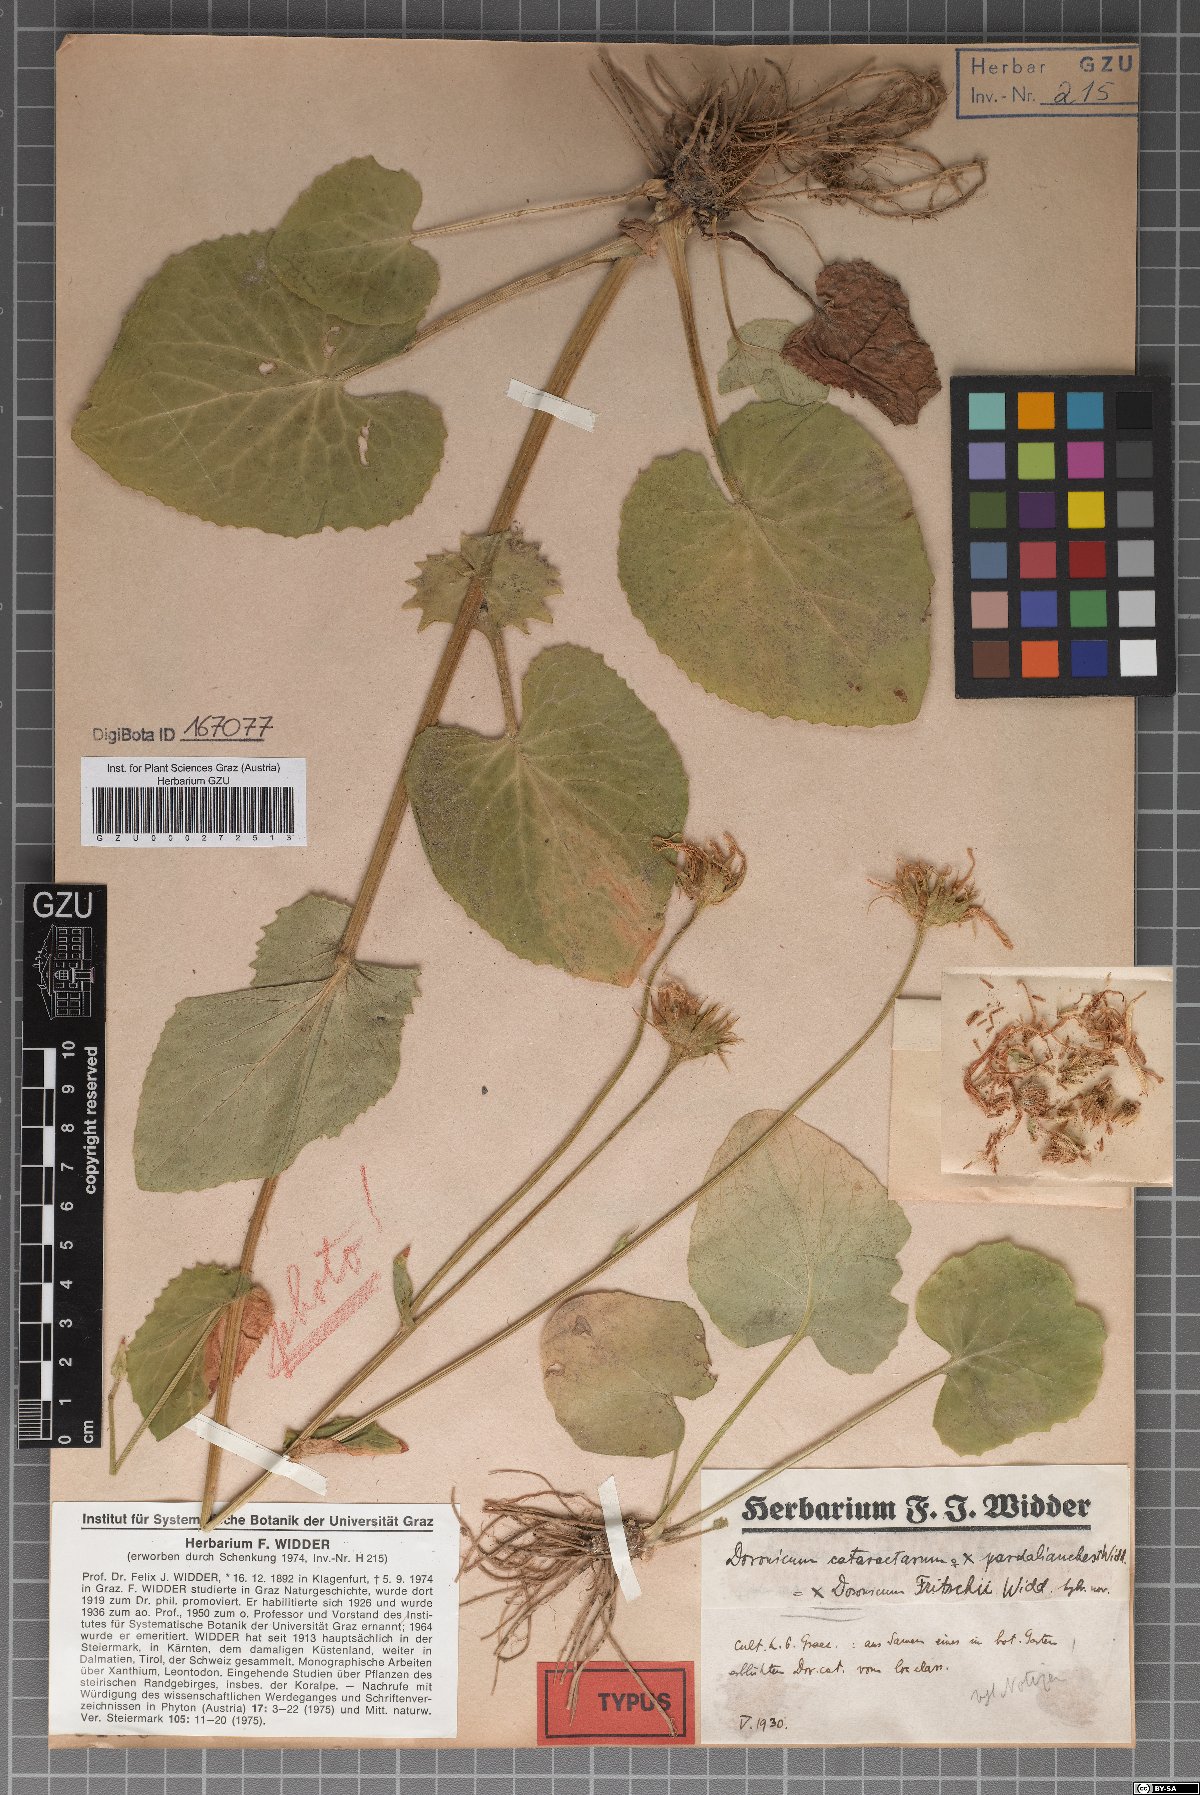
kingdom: Plantae
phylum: Tracheophyta
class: Magnoliopsida
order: Asterales
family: Asteraceae
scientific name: Asteraceae
